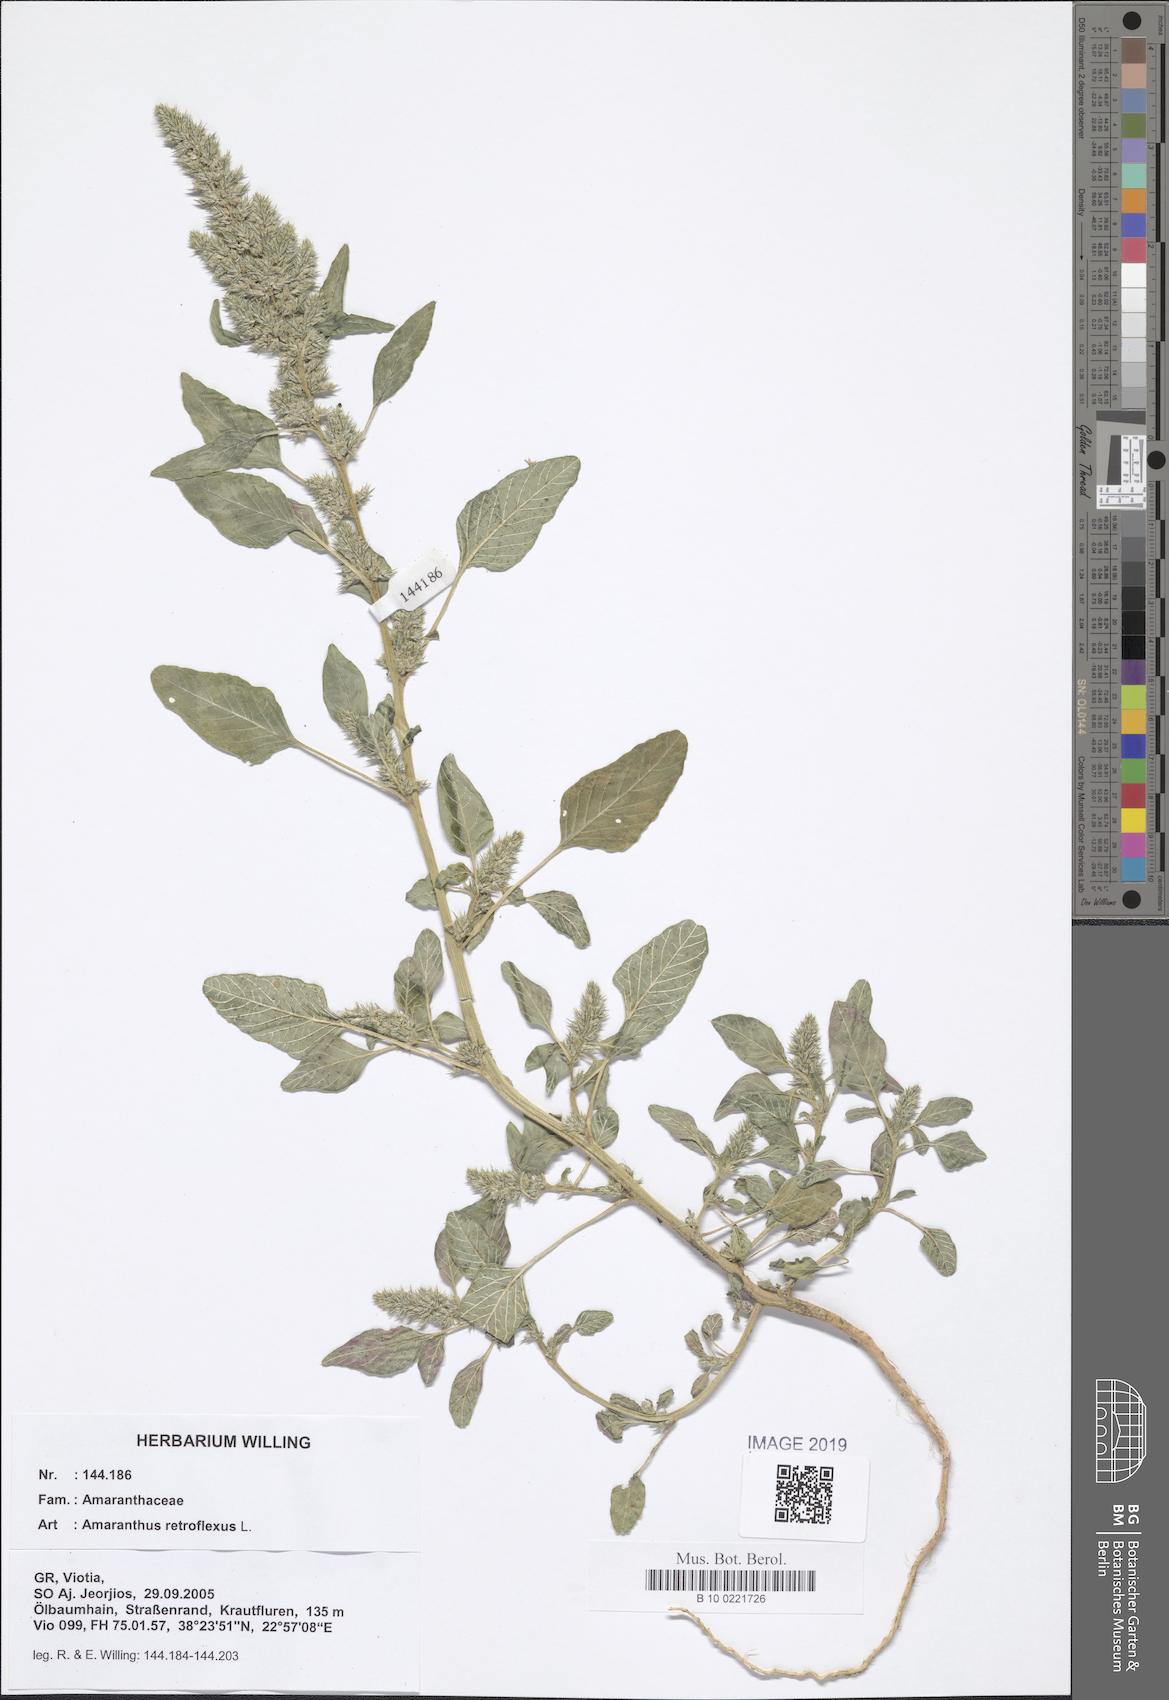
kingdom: Plantae
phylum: Tracheophyta
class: Magnoliopsida
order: Caryophyllales
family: Amaranthaceae
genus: Amaranthus
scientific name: Amaranthus retroflexus
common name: Redroot amaranth
